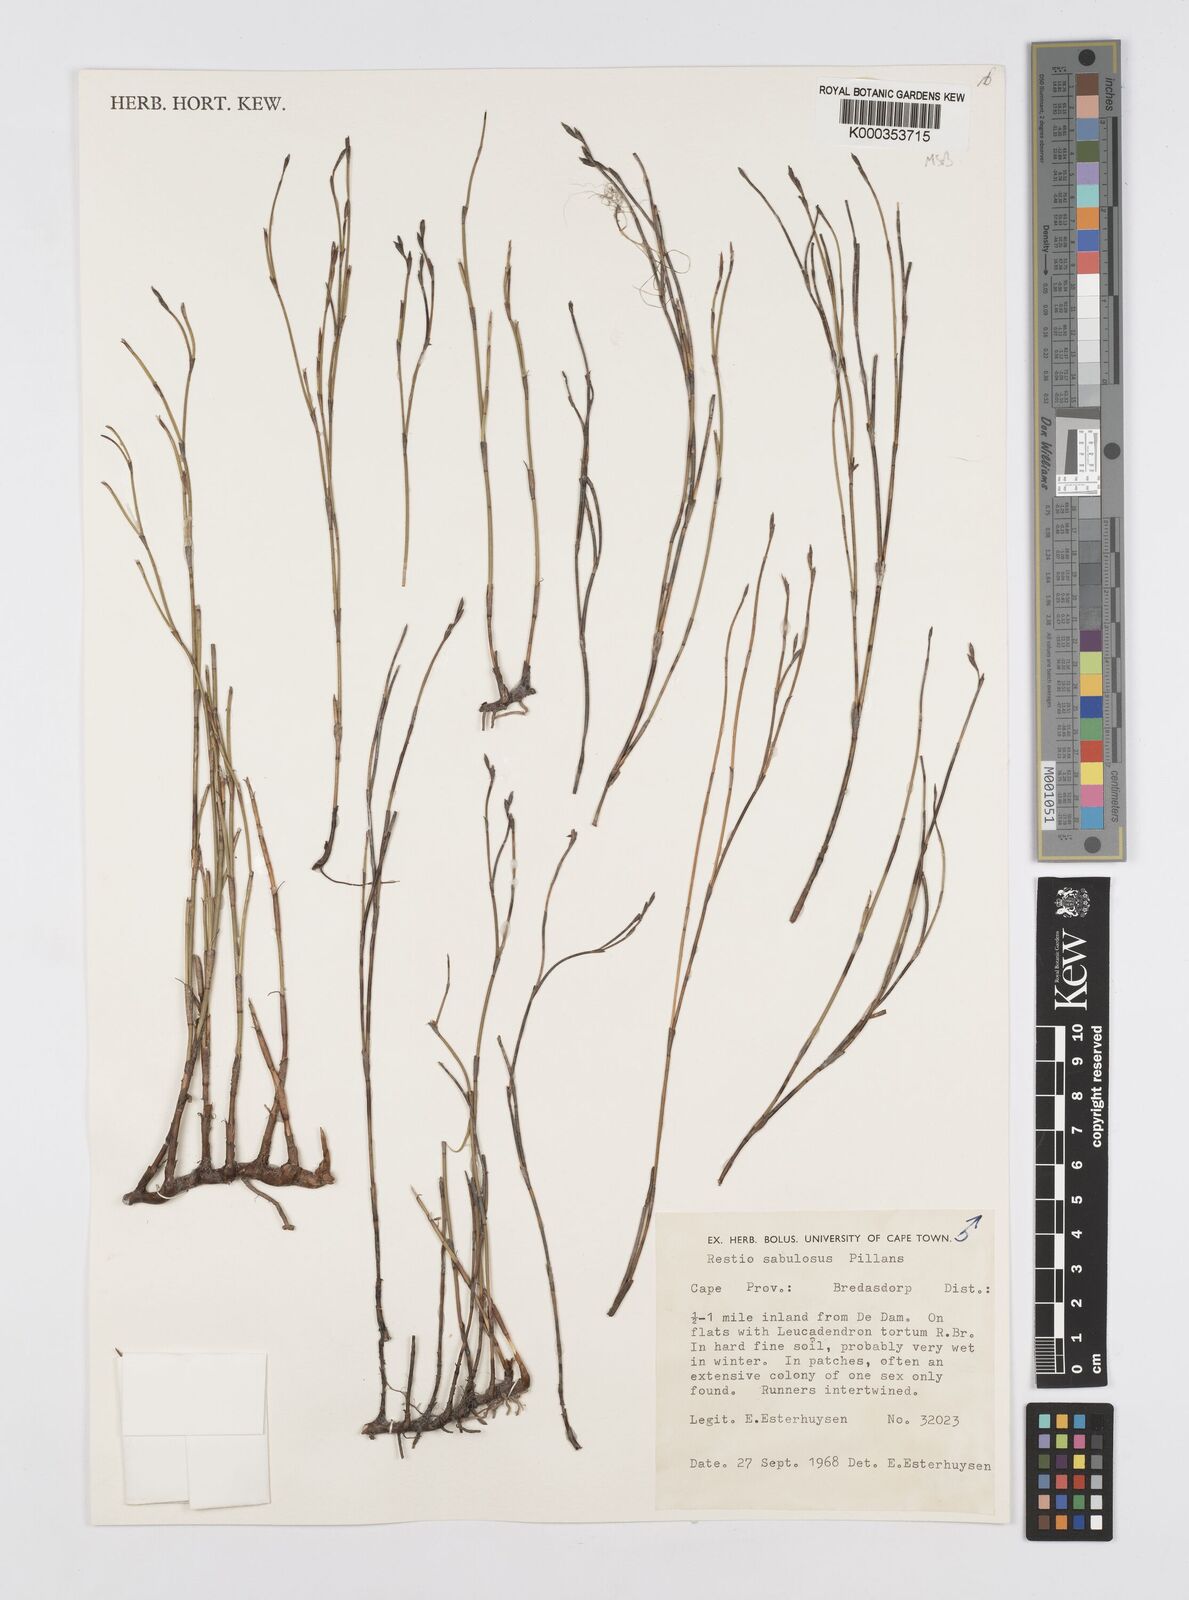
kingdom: Plantae
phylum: Tracheophyta
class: Liliopsida
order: Poales
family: Restionaceae
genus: Restio
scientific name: Restio sabulosus
